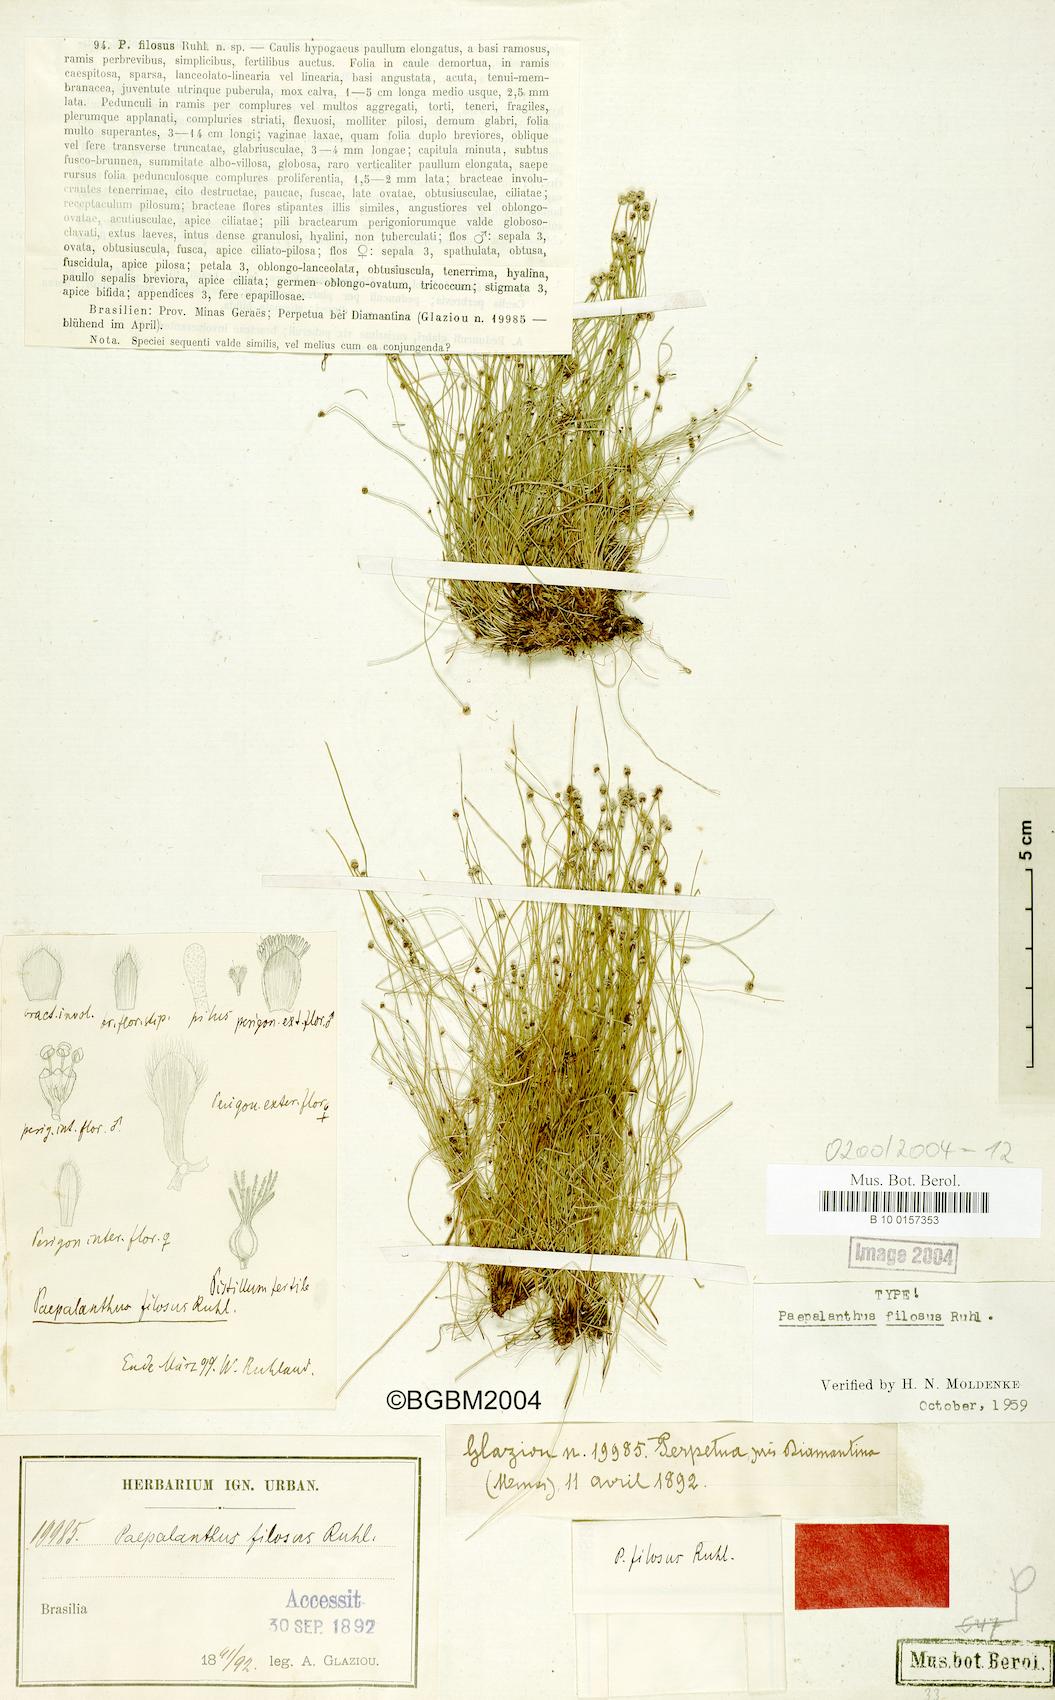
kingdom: Plantae
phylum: Tracheophyta
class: Liliopsida
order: Poales
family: Eriocaulaceae
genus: Paepalanthus
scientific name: Paepalanthus scirpeus
